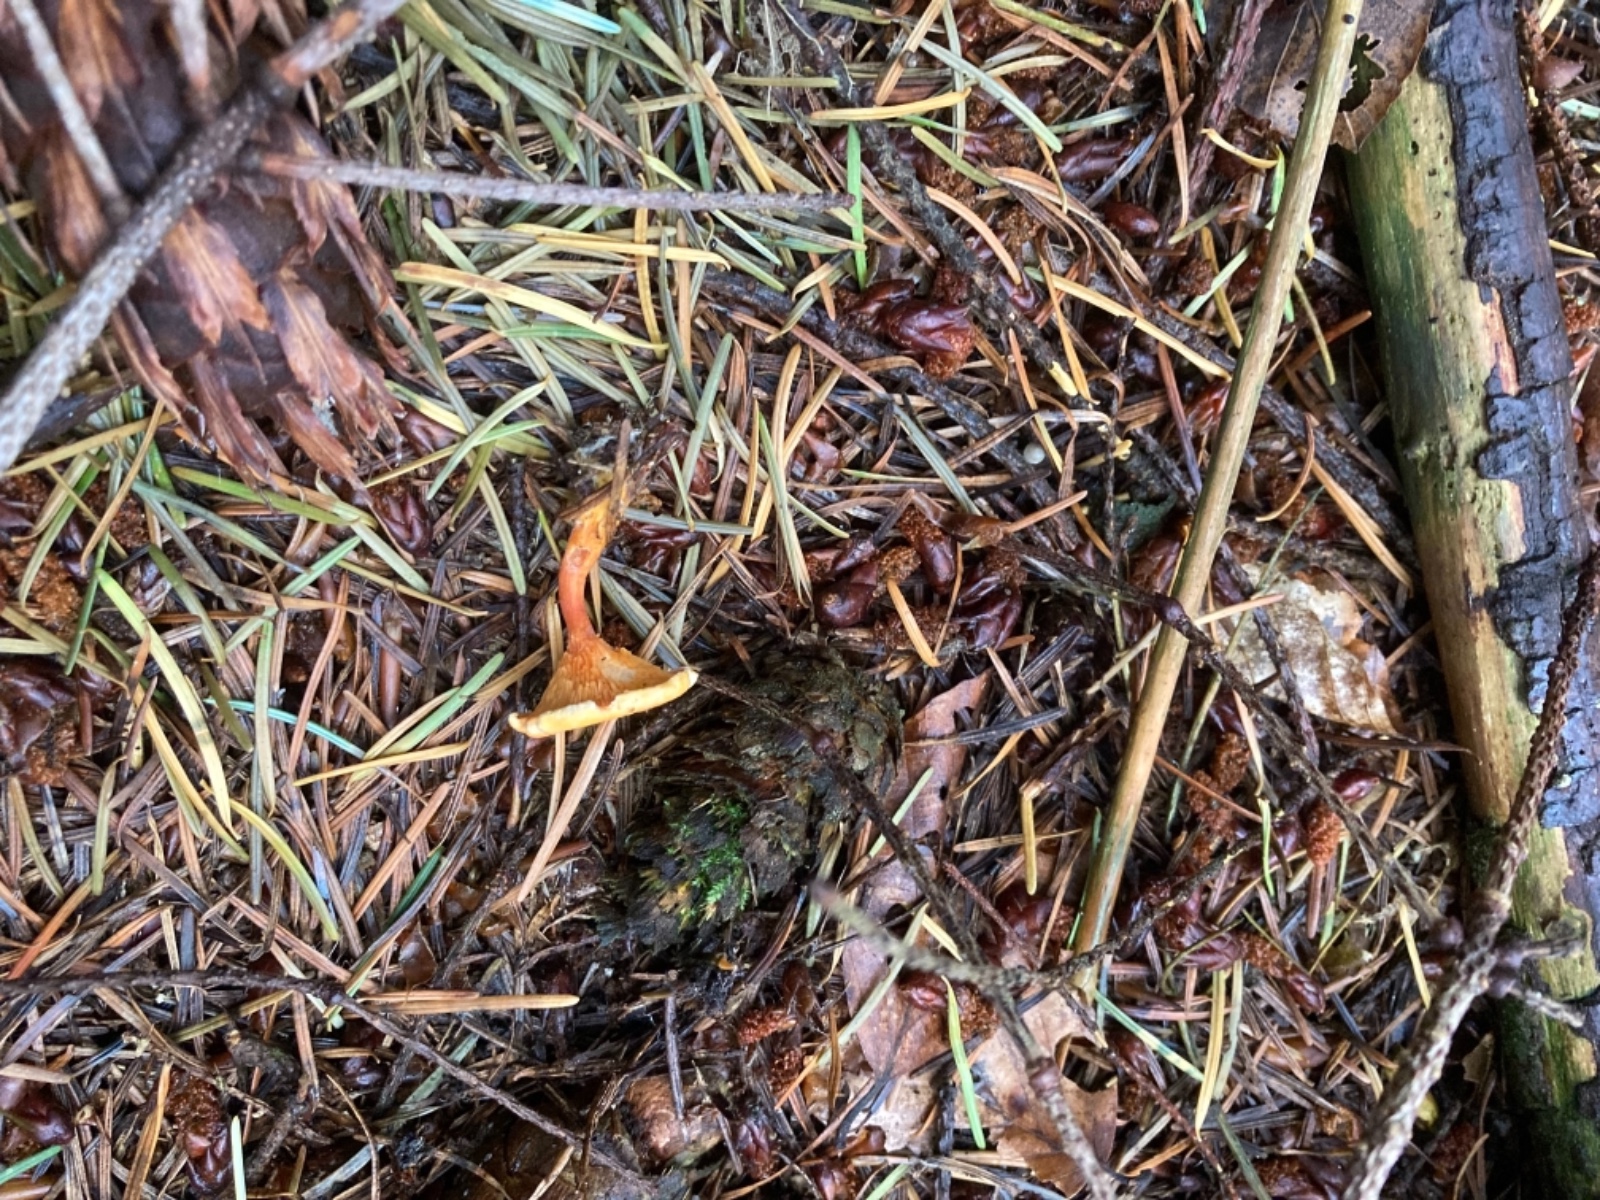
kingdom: Fungi
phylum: Basidiomycota
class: Agaricomycetes
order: Boletales
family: Hygrophoropsidaceae
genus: Hygrophoropsis
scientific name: Hygrophoropsis aurantiaca
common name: almindelig orangekantarel
